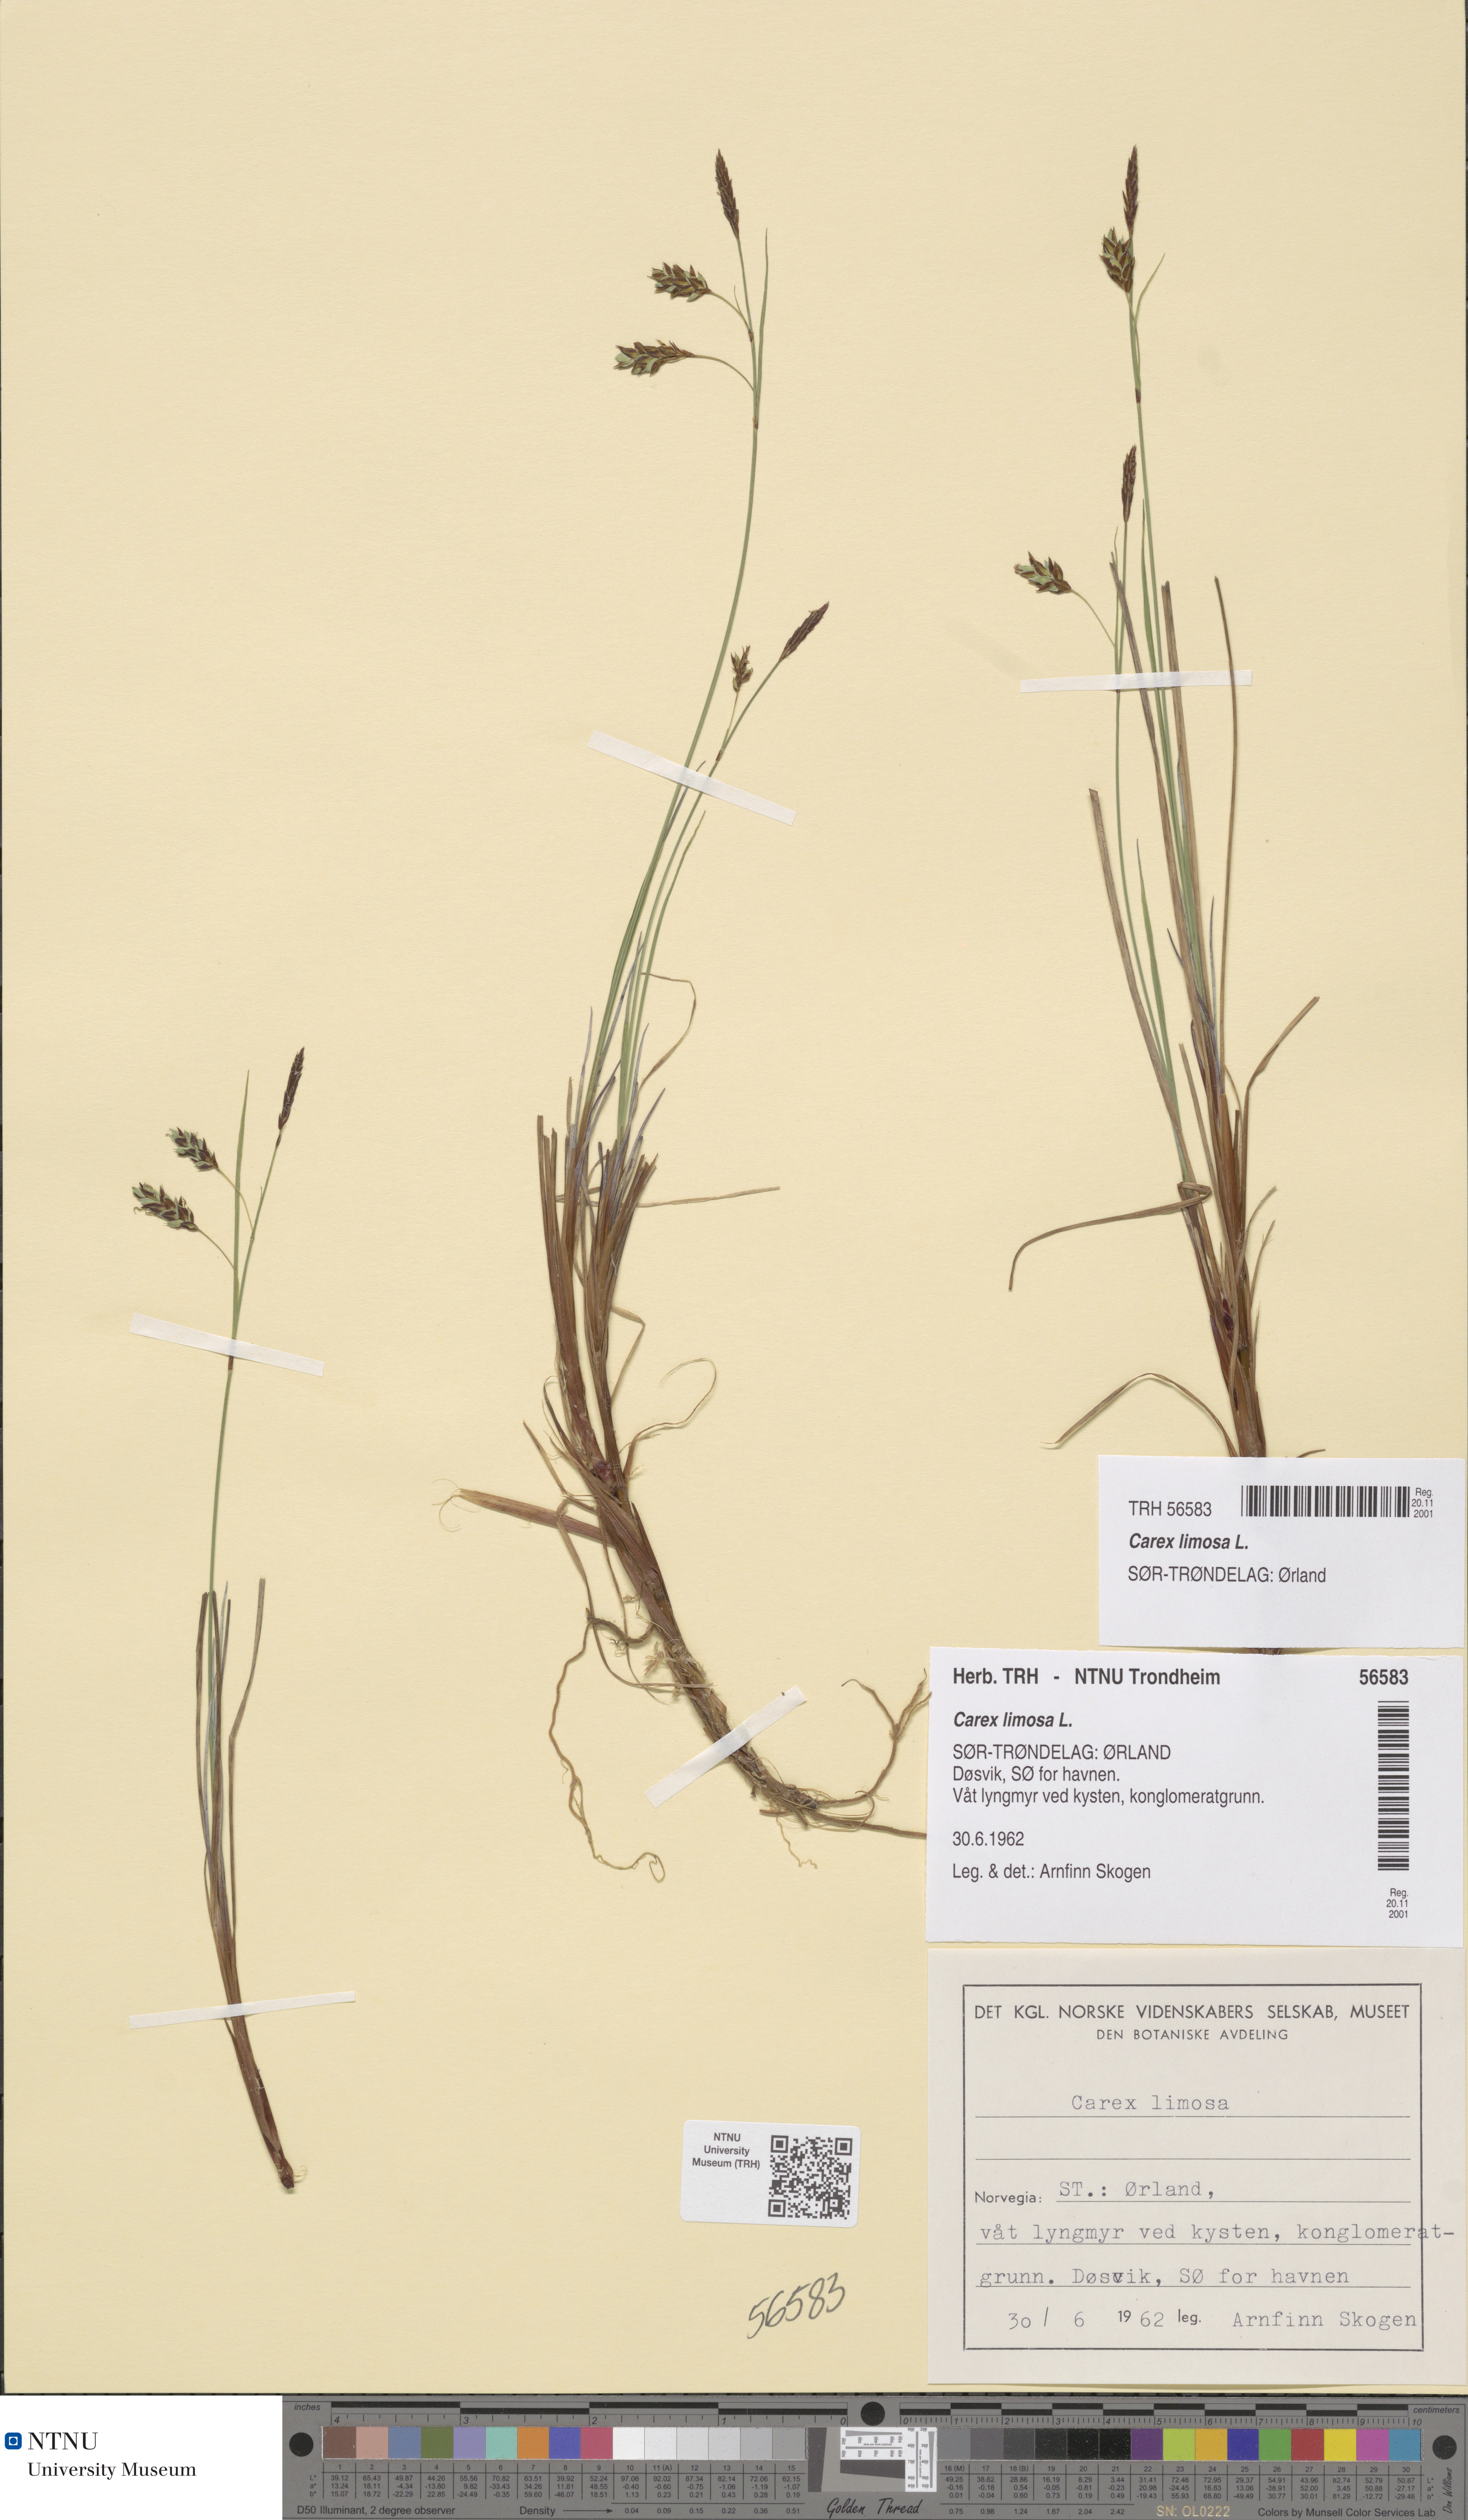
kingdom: Plantae
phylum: Tracheophyta
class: Liliopsida
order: Poales
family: Cyperaceae
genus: Carex
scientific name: Carex limosa
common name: Bog sedge
